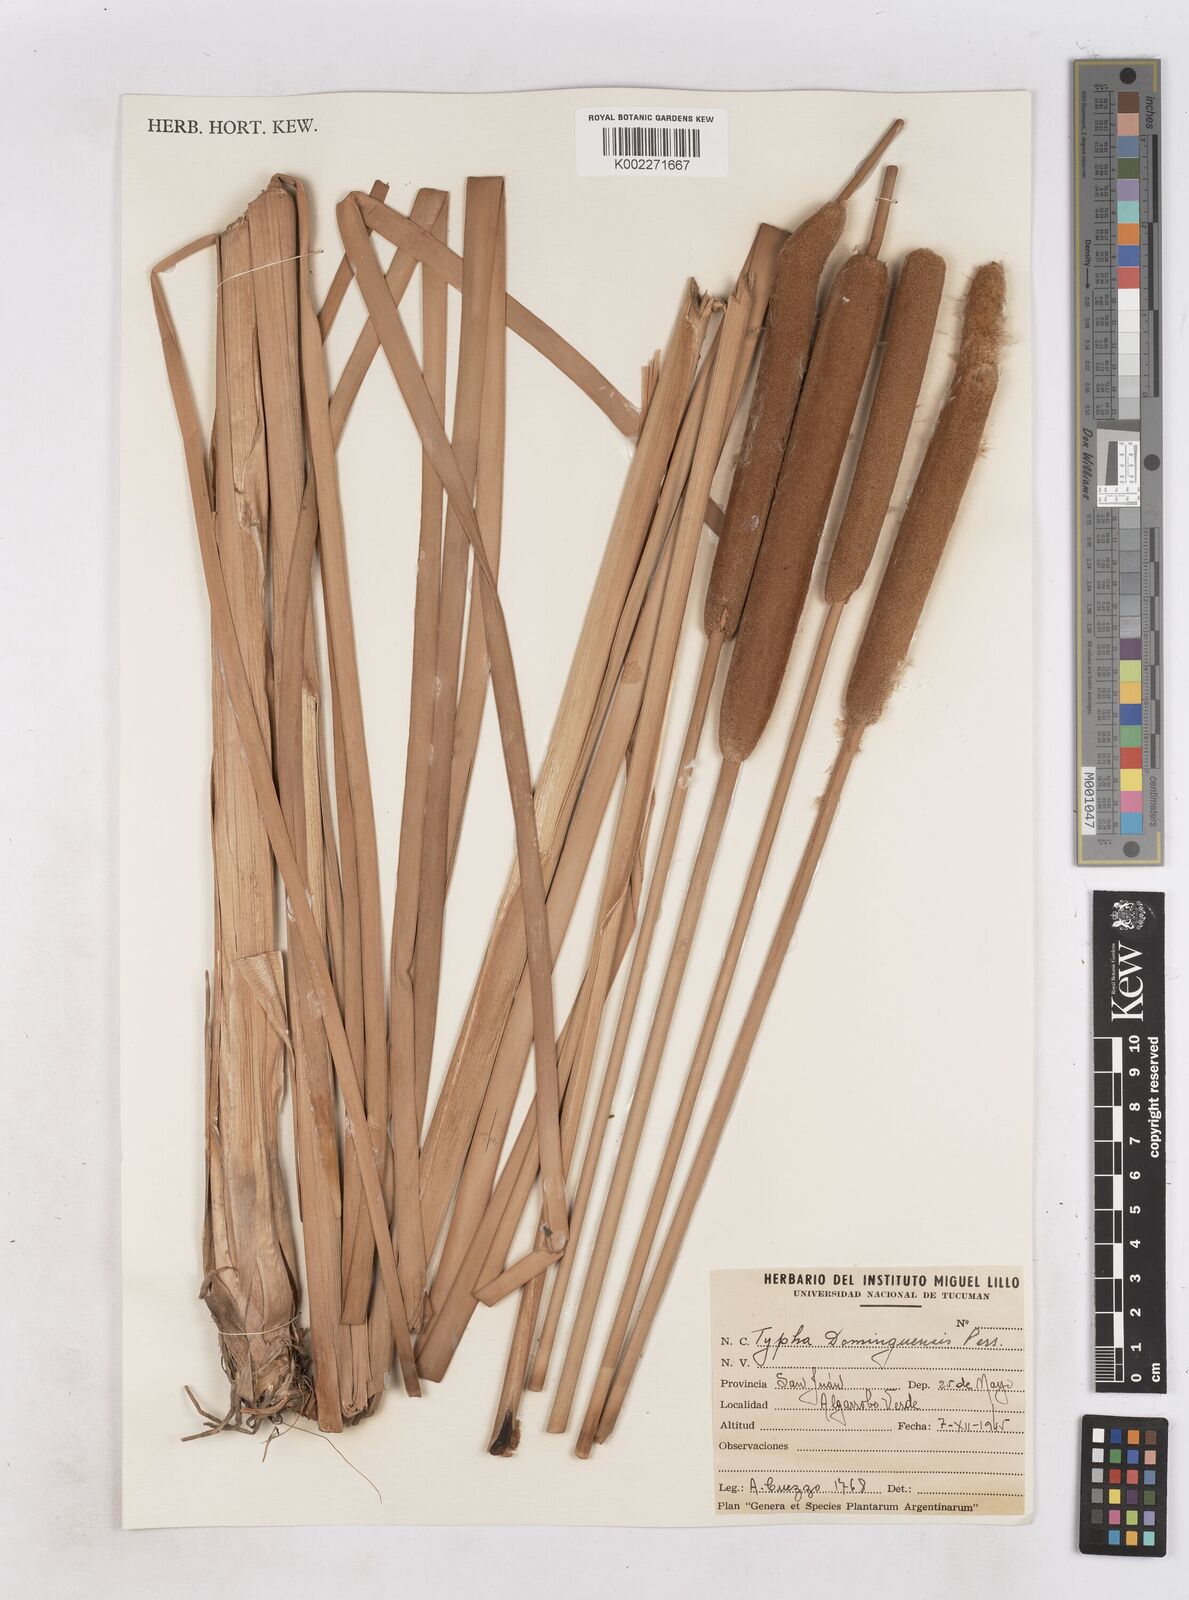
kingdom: Plantae
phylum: Tracheophyta
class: Liliopsida
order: Poales
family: Typhaceae
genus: Typha
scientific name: Typha domingensis
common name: Southern cattail
